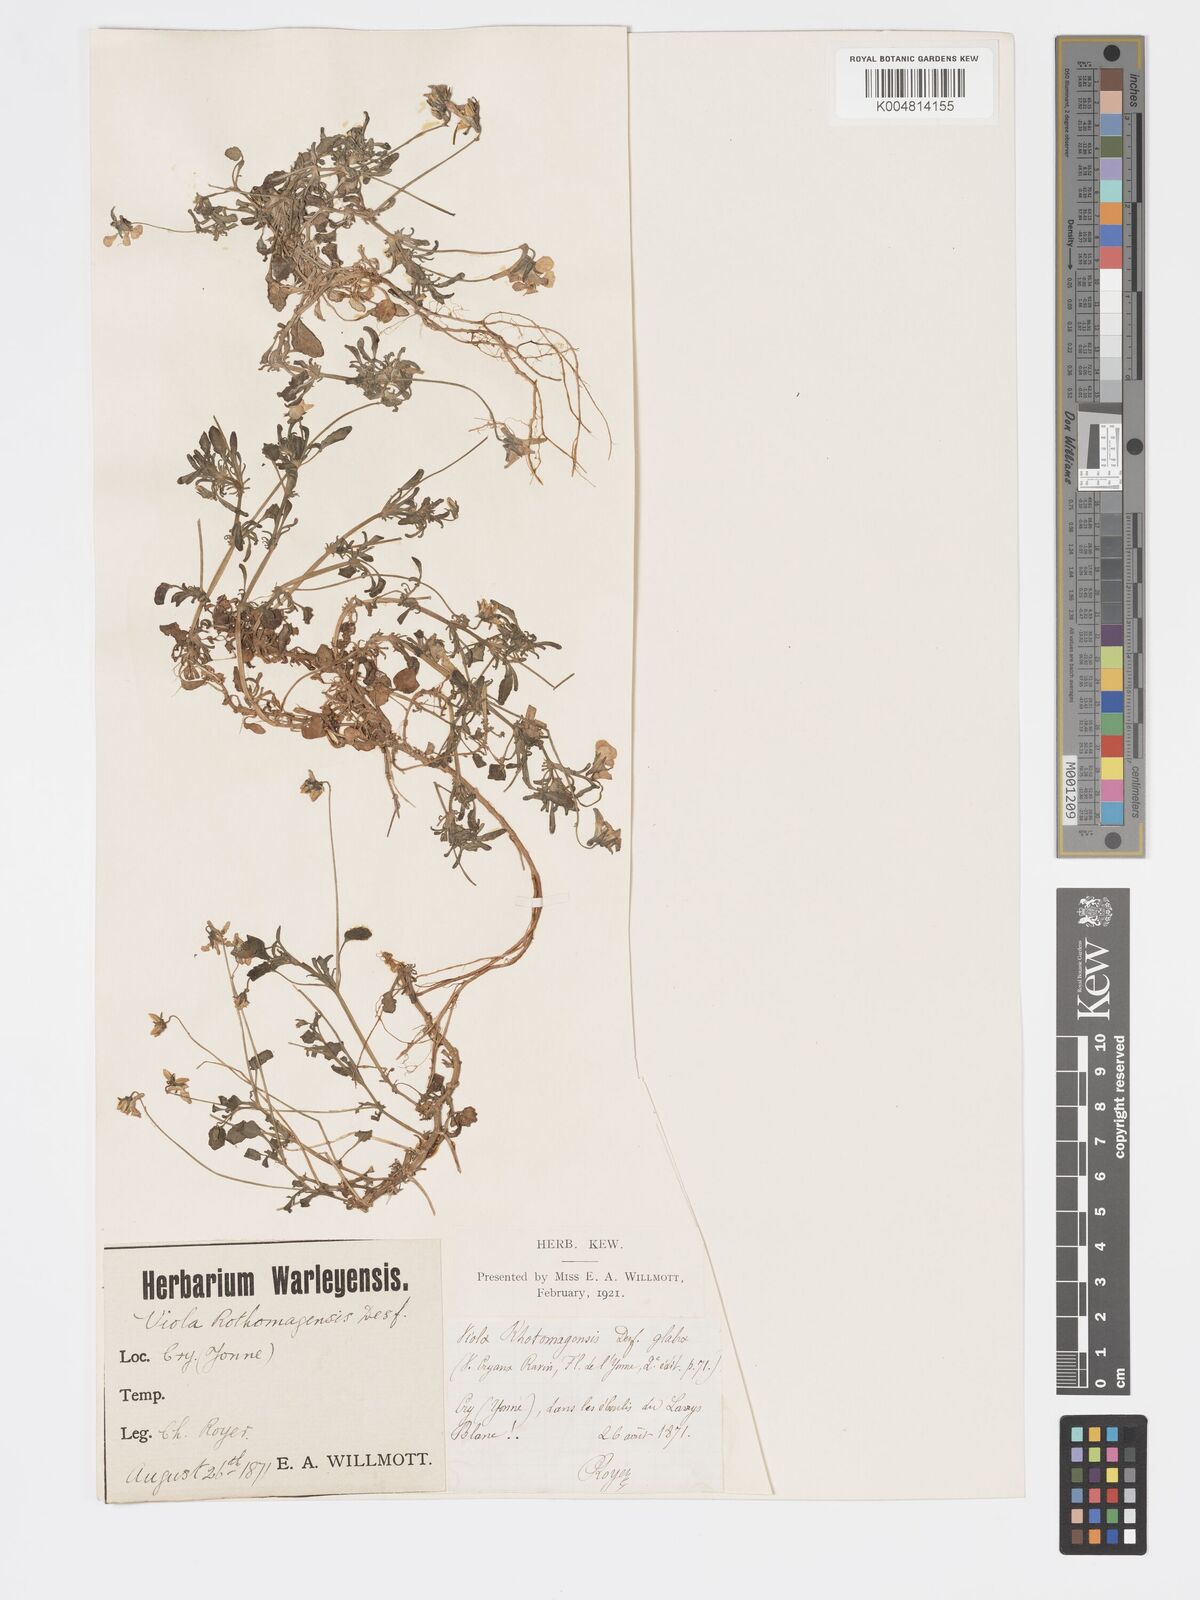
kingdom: Plantae
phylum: Tracheophyta
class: Magnoliopsida
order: Malpighiales
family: Violaceae
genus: Viola
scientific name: Viola hispida
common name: Rouen pansy
